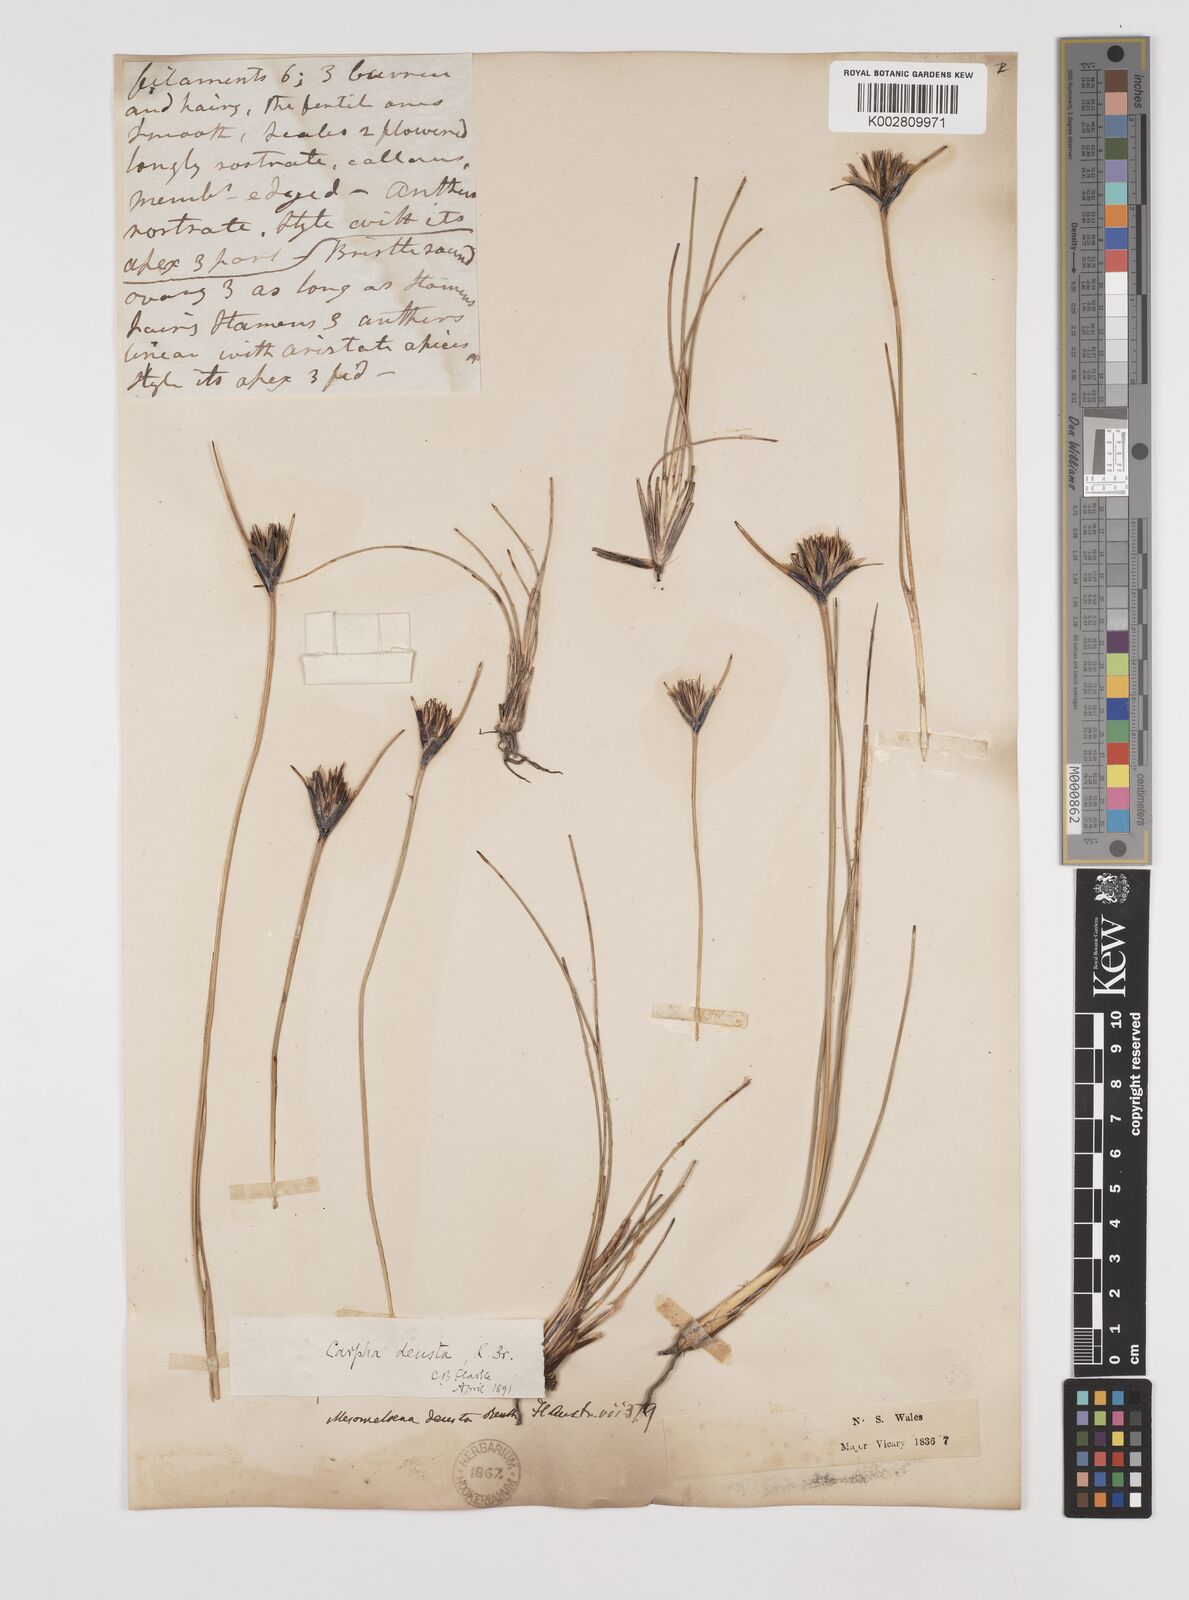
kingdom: Plantae
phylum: Tracheophyta
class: Liliopsida
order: Poales
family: Cyperaceae
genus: Ptilothrix
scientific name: Ptilothrix deusta
